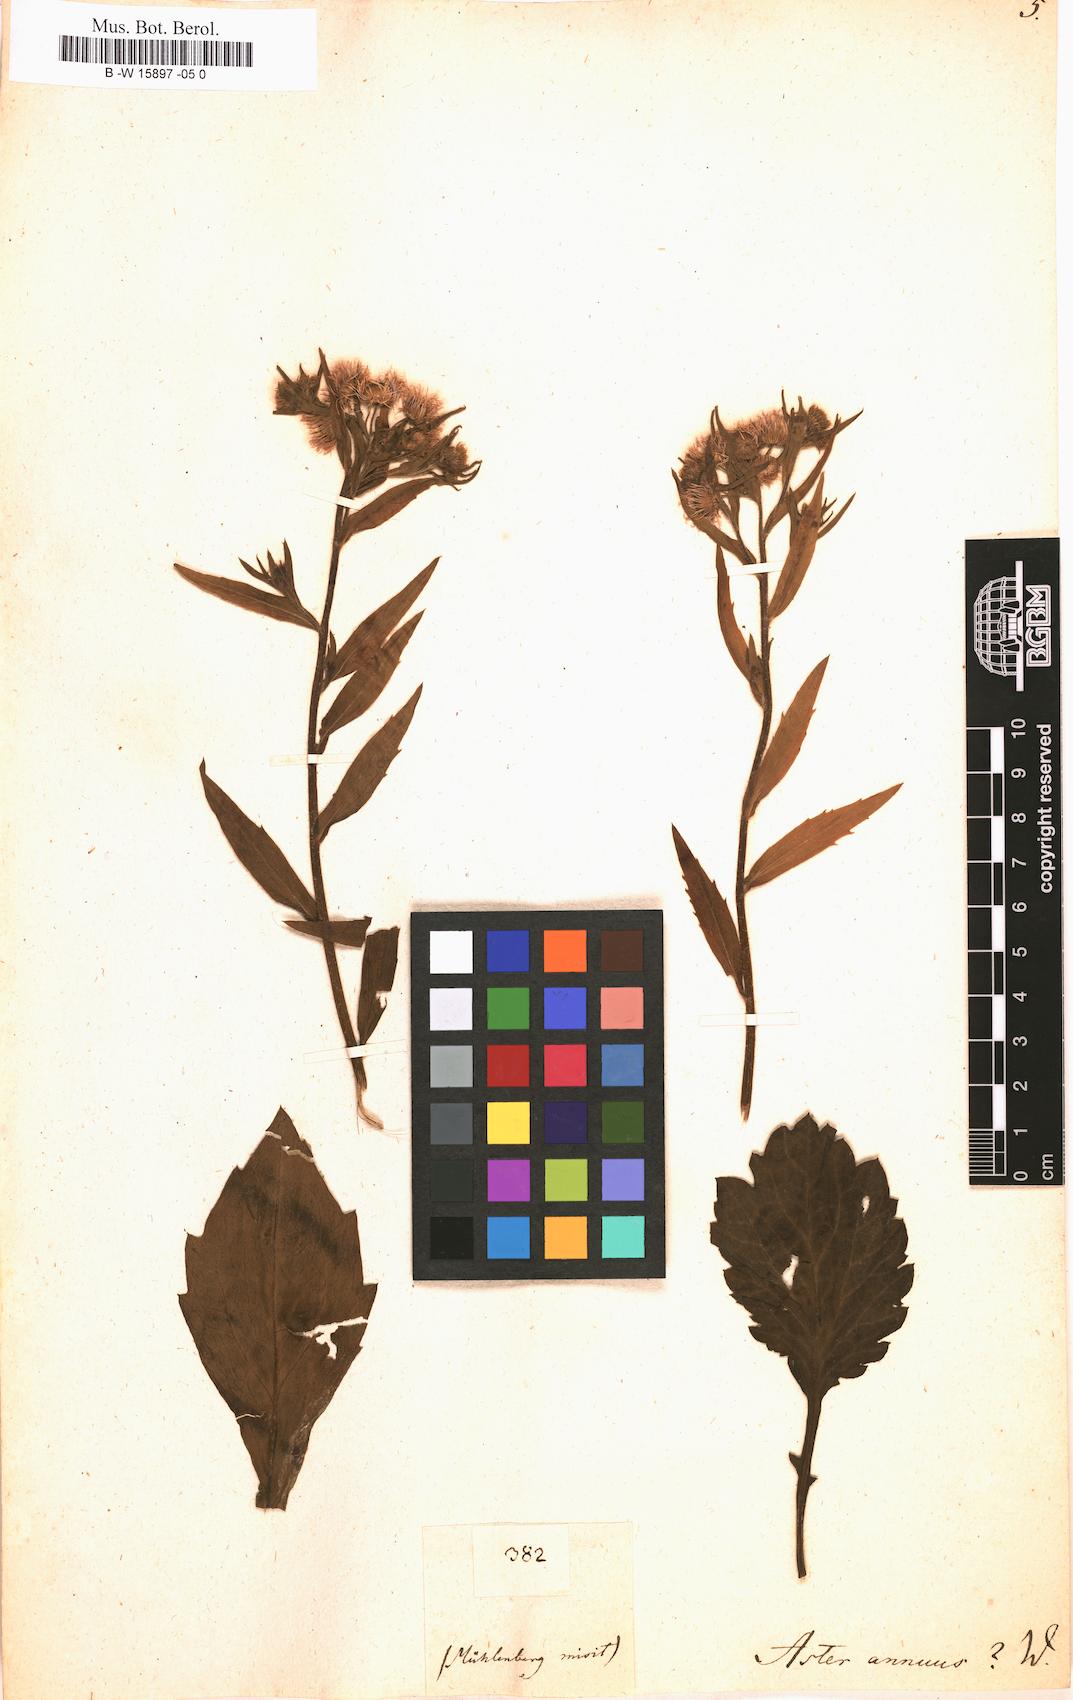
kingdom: Plantae
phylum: Tracheophyta
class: Magnoliopsida
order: Asterales
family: Asteraceae
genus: Erigeron
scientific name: Erigeron annuus
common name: Tall fleabane
